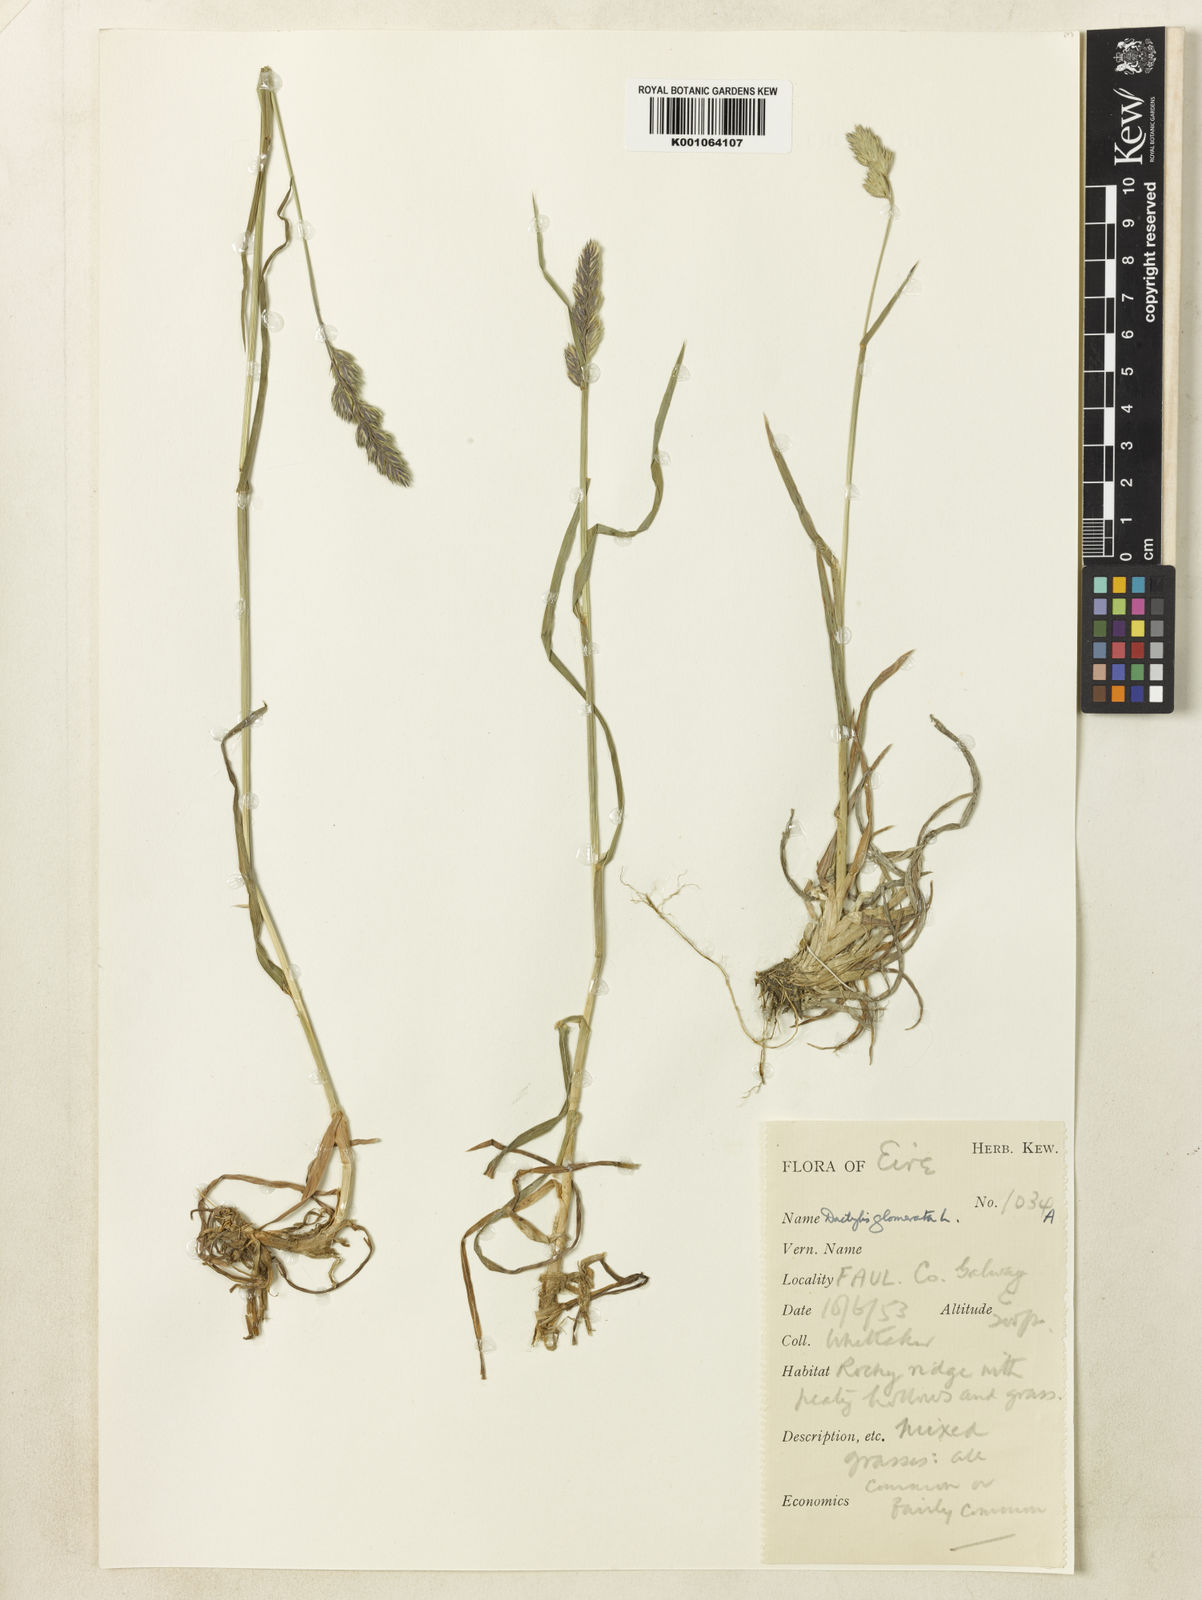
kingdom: Plantae
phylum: Tracheophyta
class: Liliopsida
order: Poales
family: Poaceae
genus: Dactylis
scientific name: Dactylis glomerata
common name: Orchardgrass
